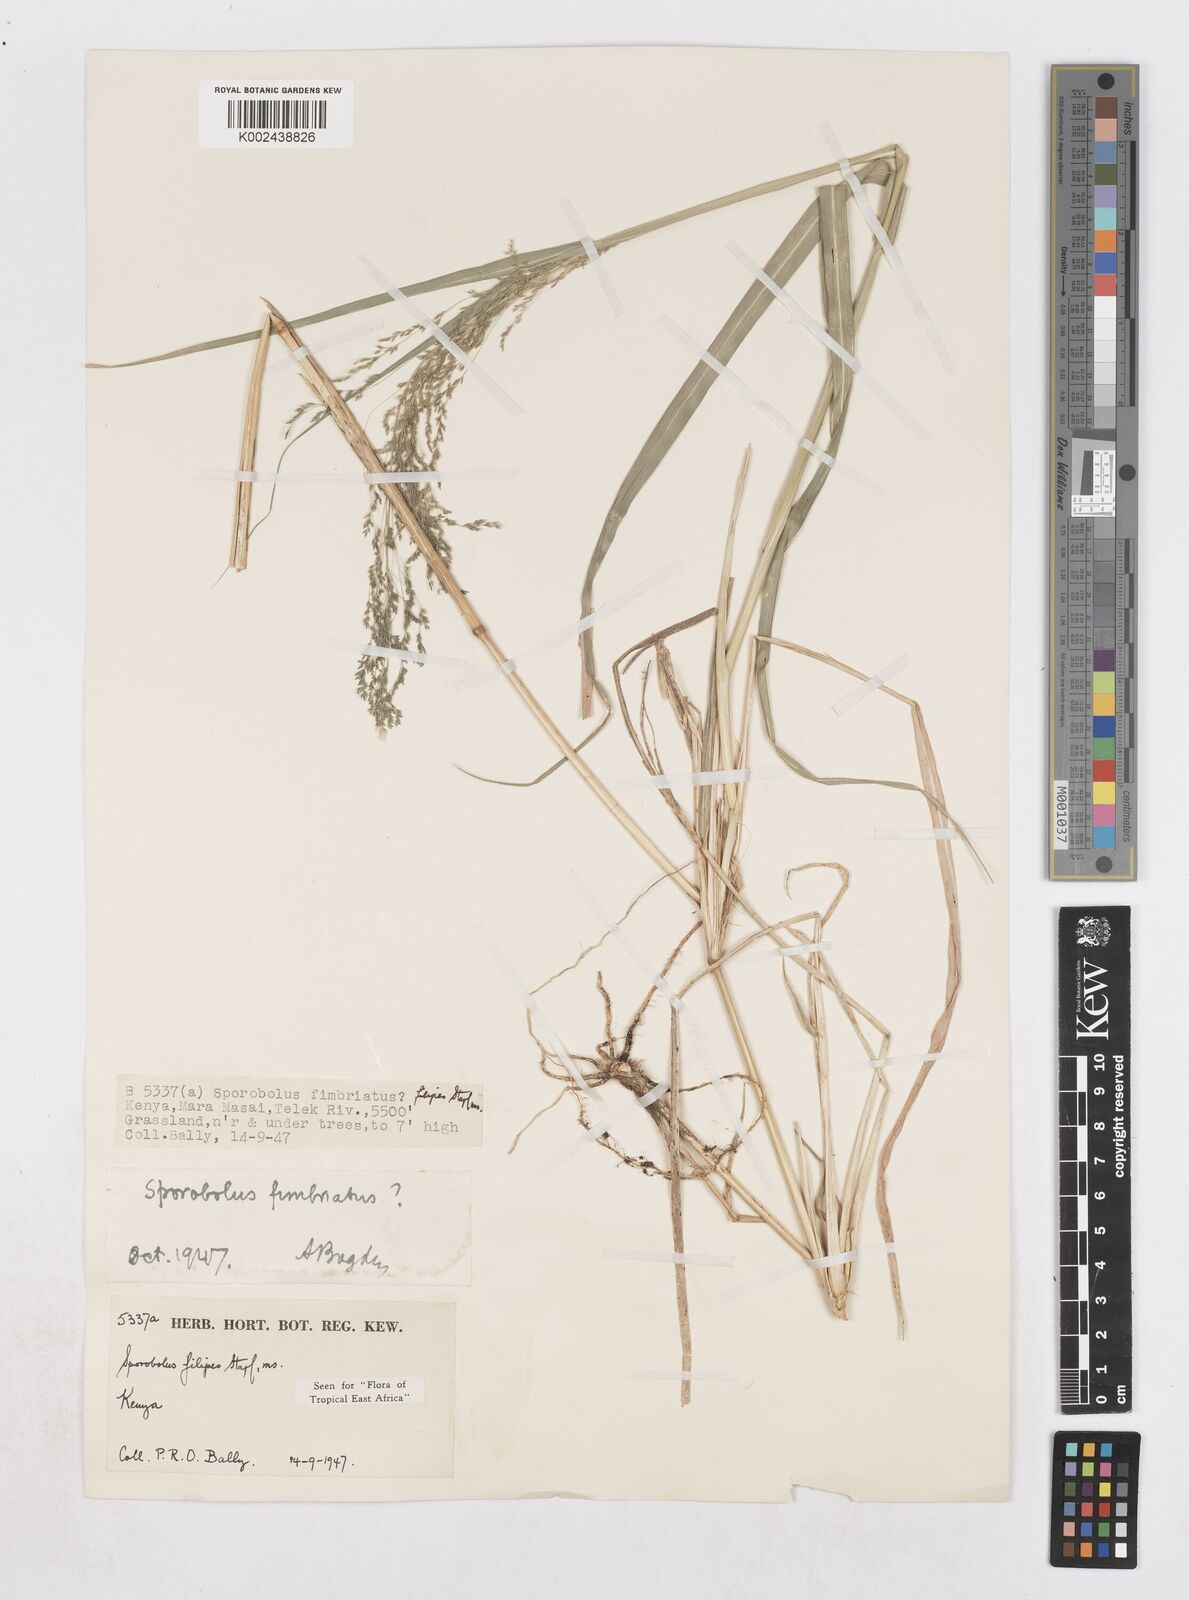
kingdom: Plantae
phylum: Tracheophyta
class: Liliopsida
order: Poales
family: Poaceae
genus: Sporobolus
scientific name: Sporobolus agrostoides
